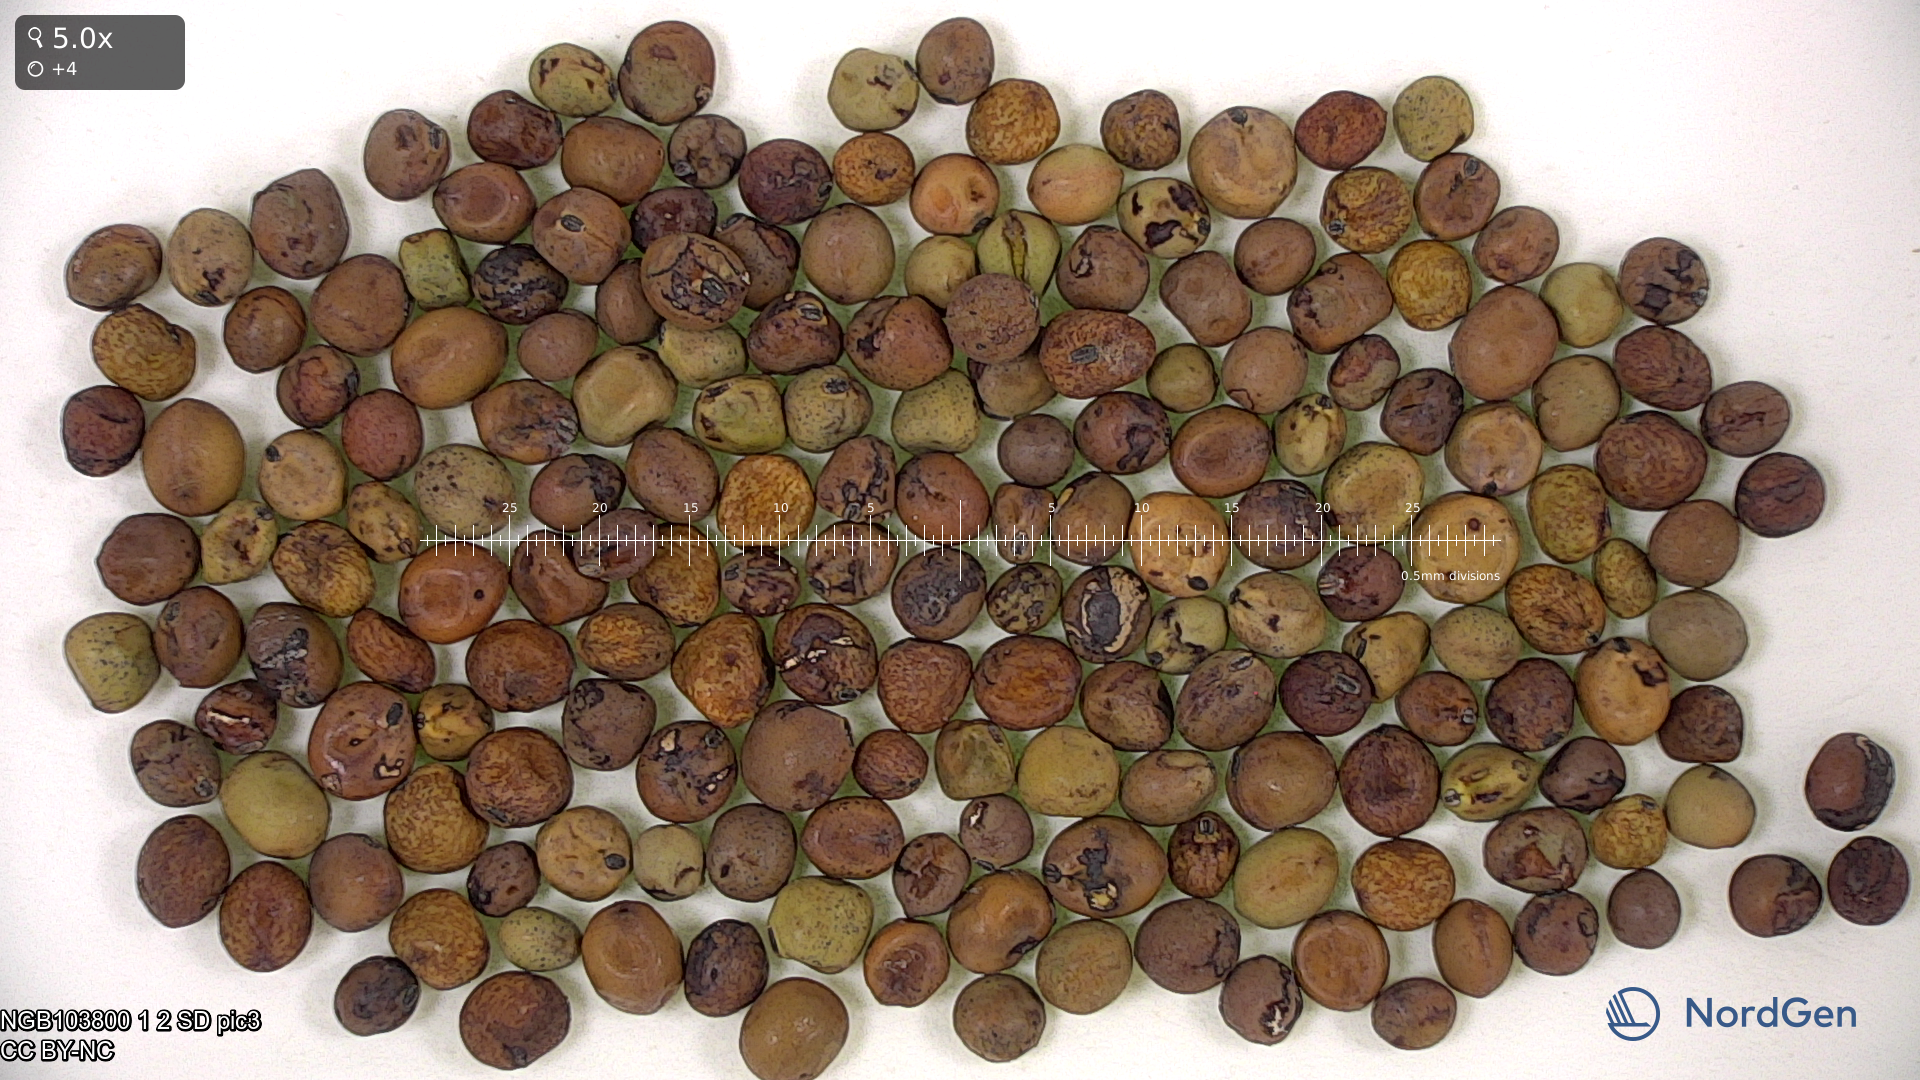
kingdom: Plantae
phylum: Tracheophyta
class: Magnoliopsida
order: Fabales
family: Fabaceae
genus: Lathyrus
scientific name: Lathyrus oleraceus
